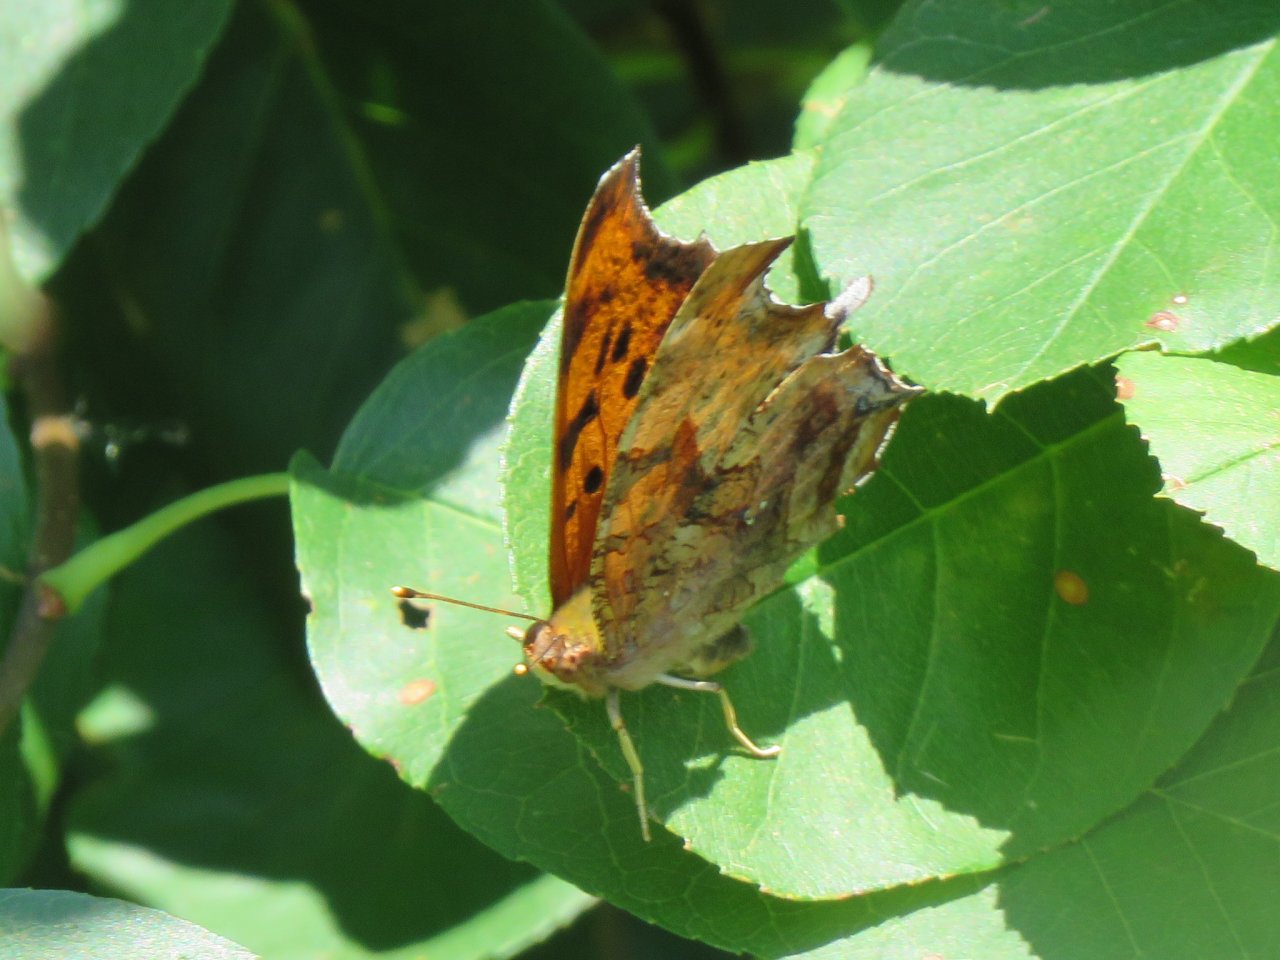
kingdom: Animalia
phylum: Arthropoda
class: Insecta
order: Lepidoptera
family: Nymphalidae
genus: Polygonia
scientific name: Polygonia comma
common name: Eastern Comma
